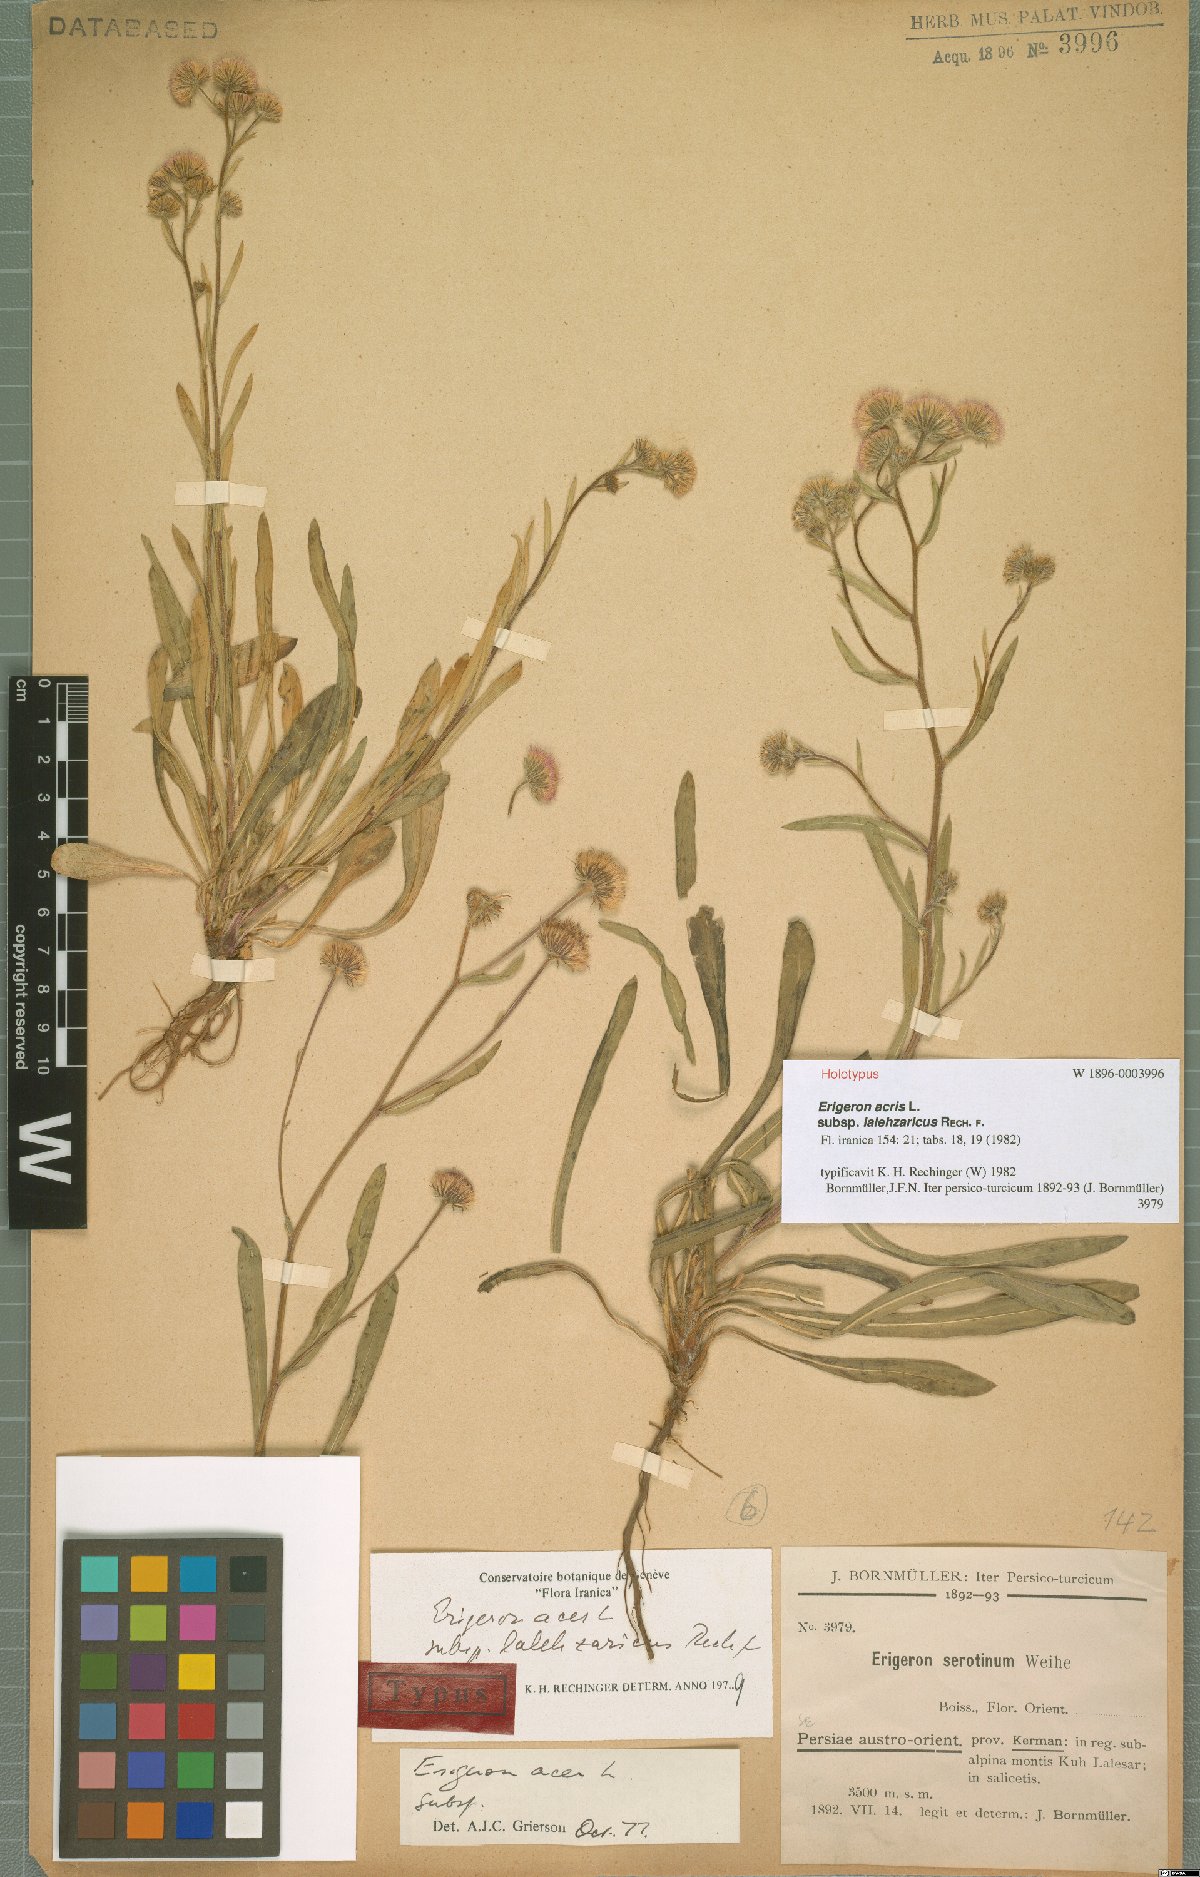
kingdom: Plantae
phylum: Tracheophyta
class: Magnoliopsida
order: Asterales
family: Asteraceae
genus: Erigeron
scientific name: Erigeron lalehzaricus
